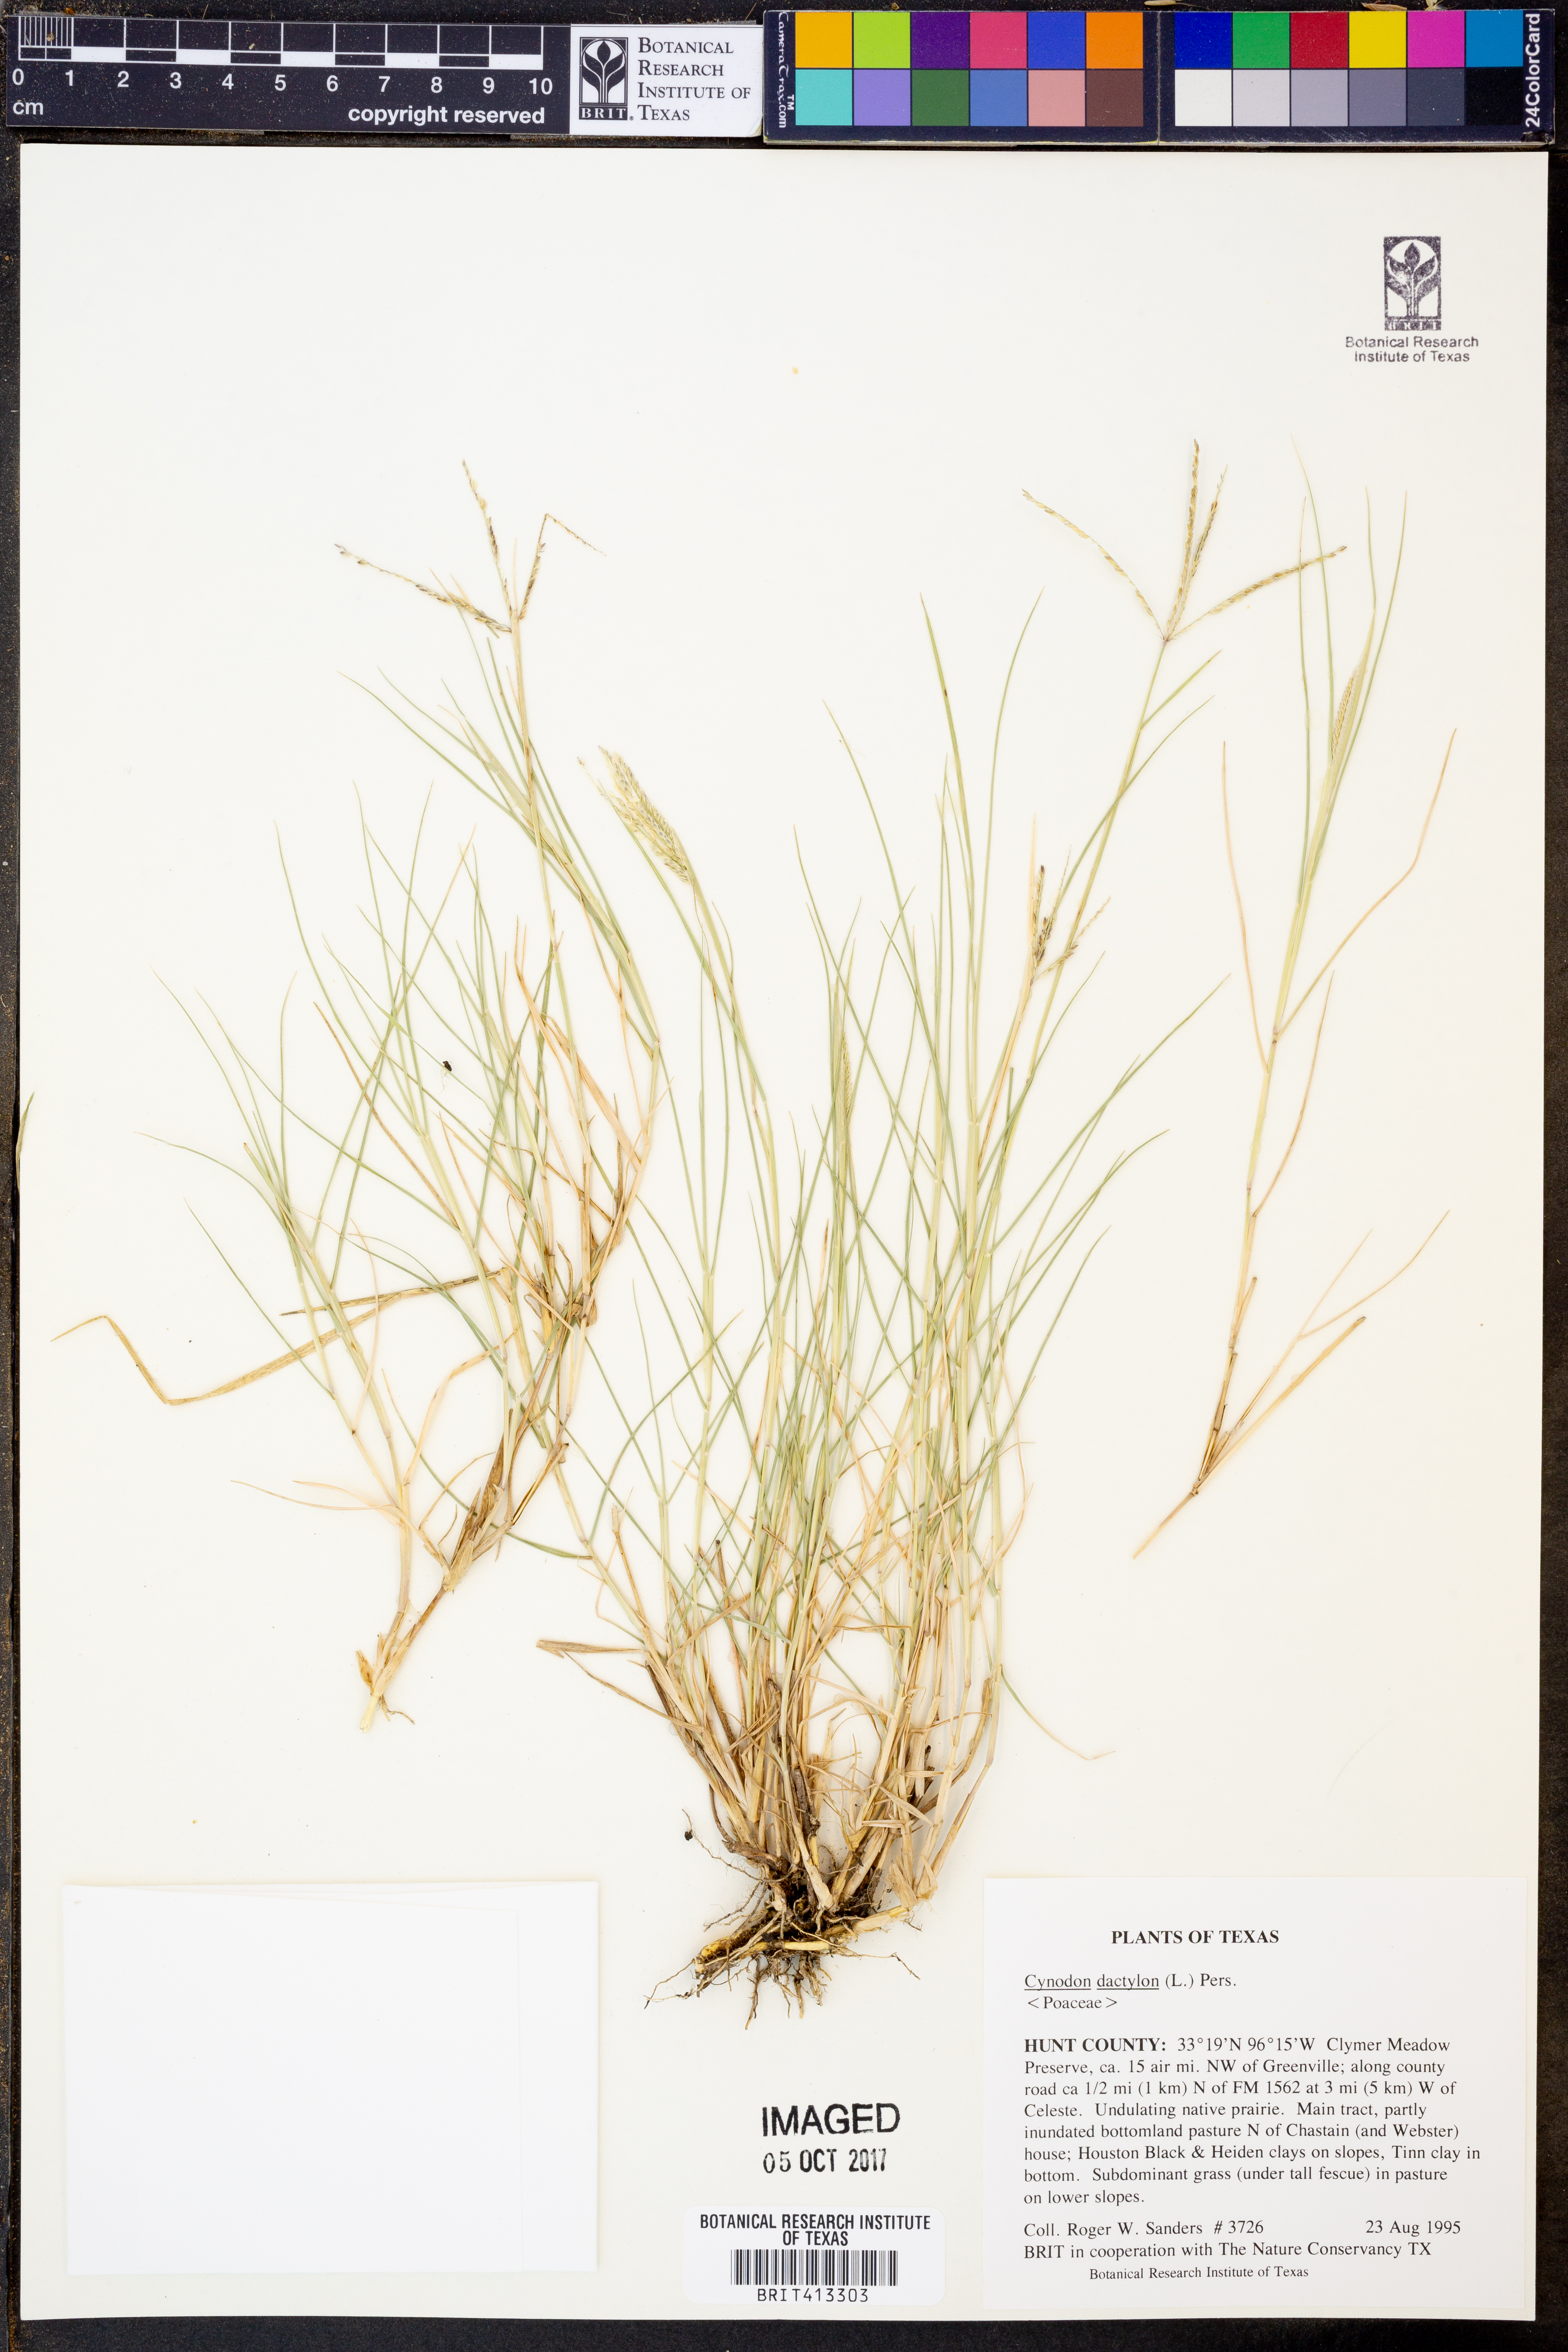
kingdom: Plantae
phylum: Tracheophyta
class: Liliopsida
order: Poales
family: Poaceae
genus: Cynodon
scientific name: Cynodon dactylon
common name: Bermuda grass
